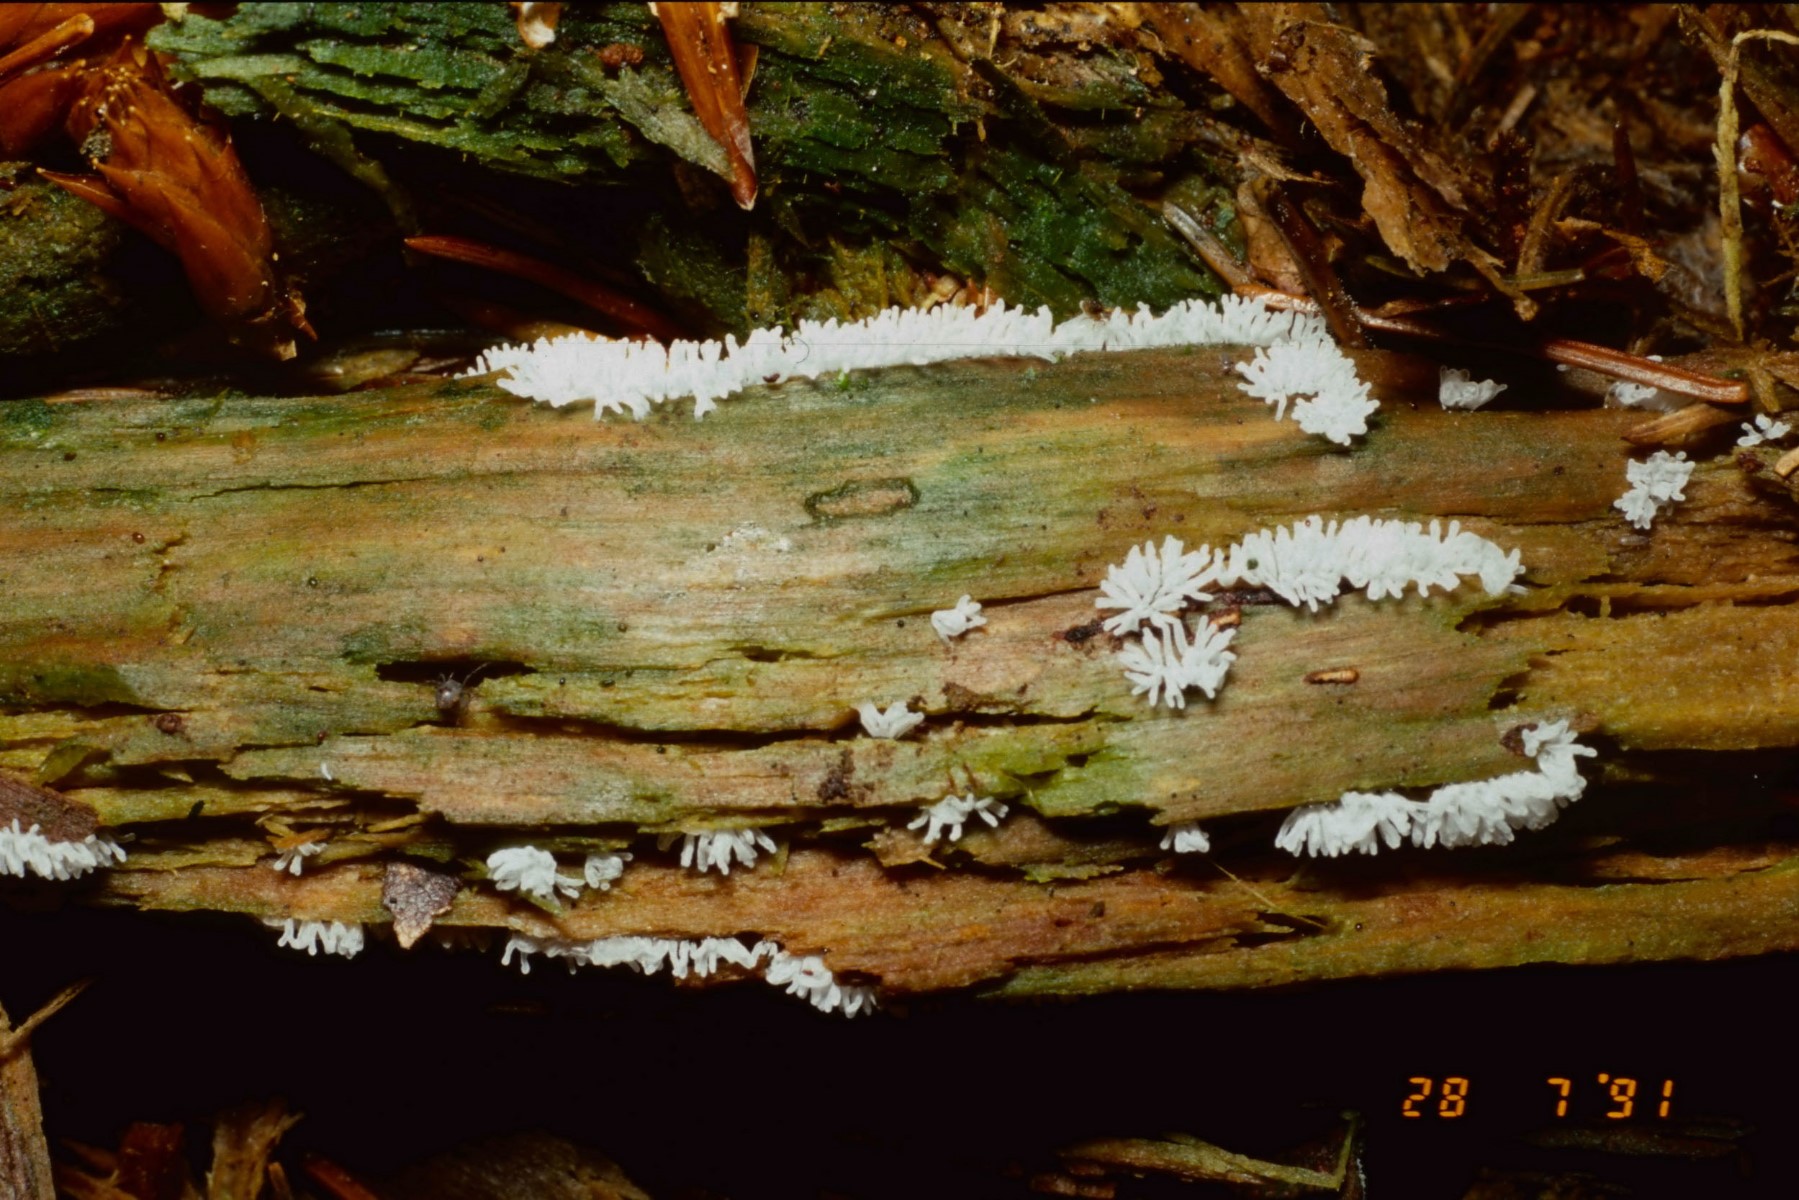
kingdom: Protozoa
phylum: Mycetozoa
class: Protosteliomycetes
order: Ceratiomyxales
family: Ceratiomyxaceae
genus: Ceratiomyxa
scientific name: Ceratiomyxa fruticulosa
